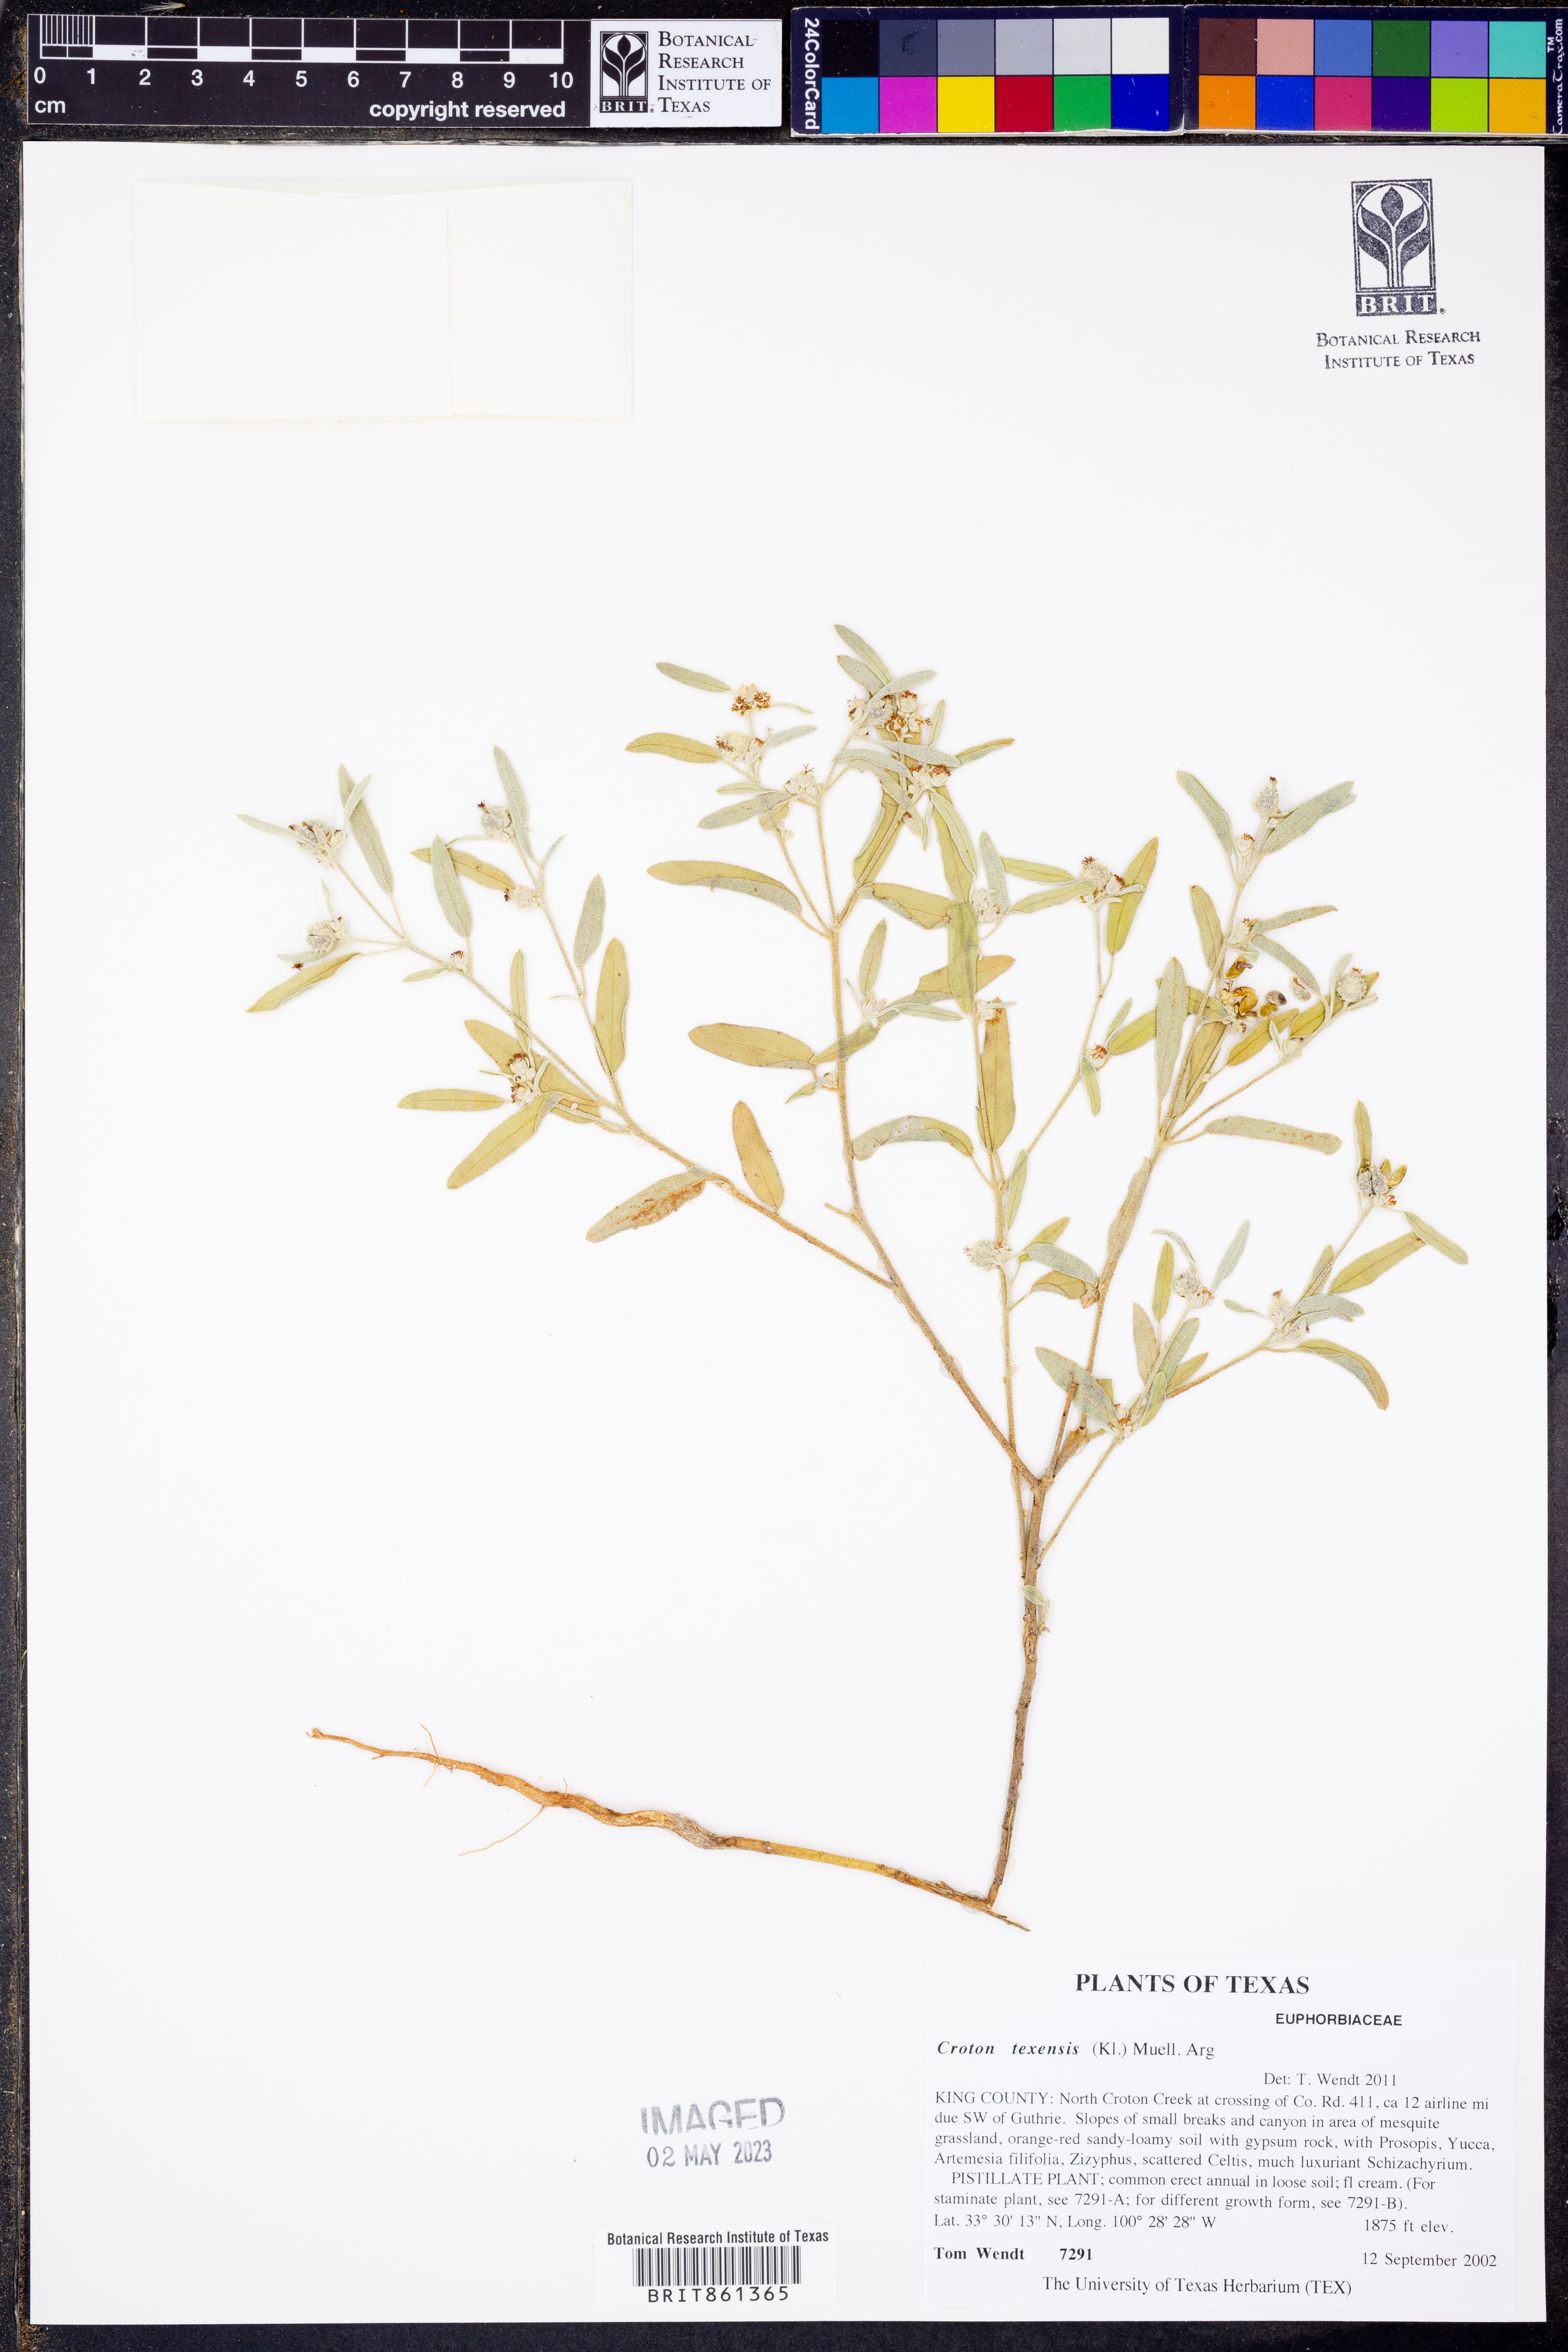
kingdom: Plantae
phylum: Tracheophyta
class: Magnoliopsida
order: Malpighiales
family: Euphorbiaceae
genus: Croton
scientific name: Croton texensis
